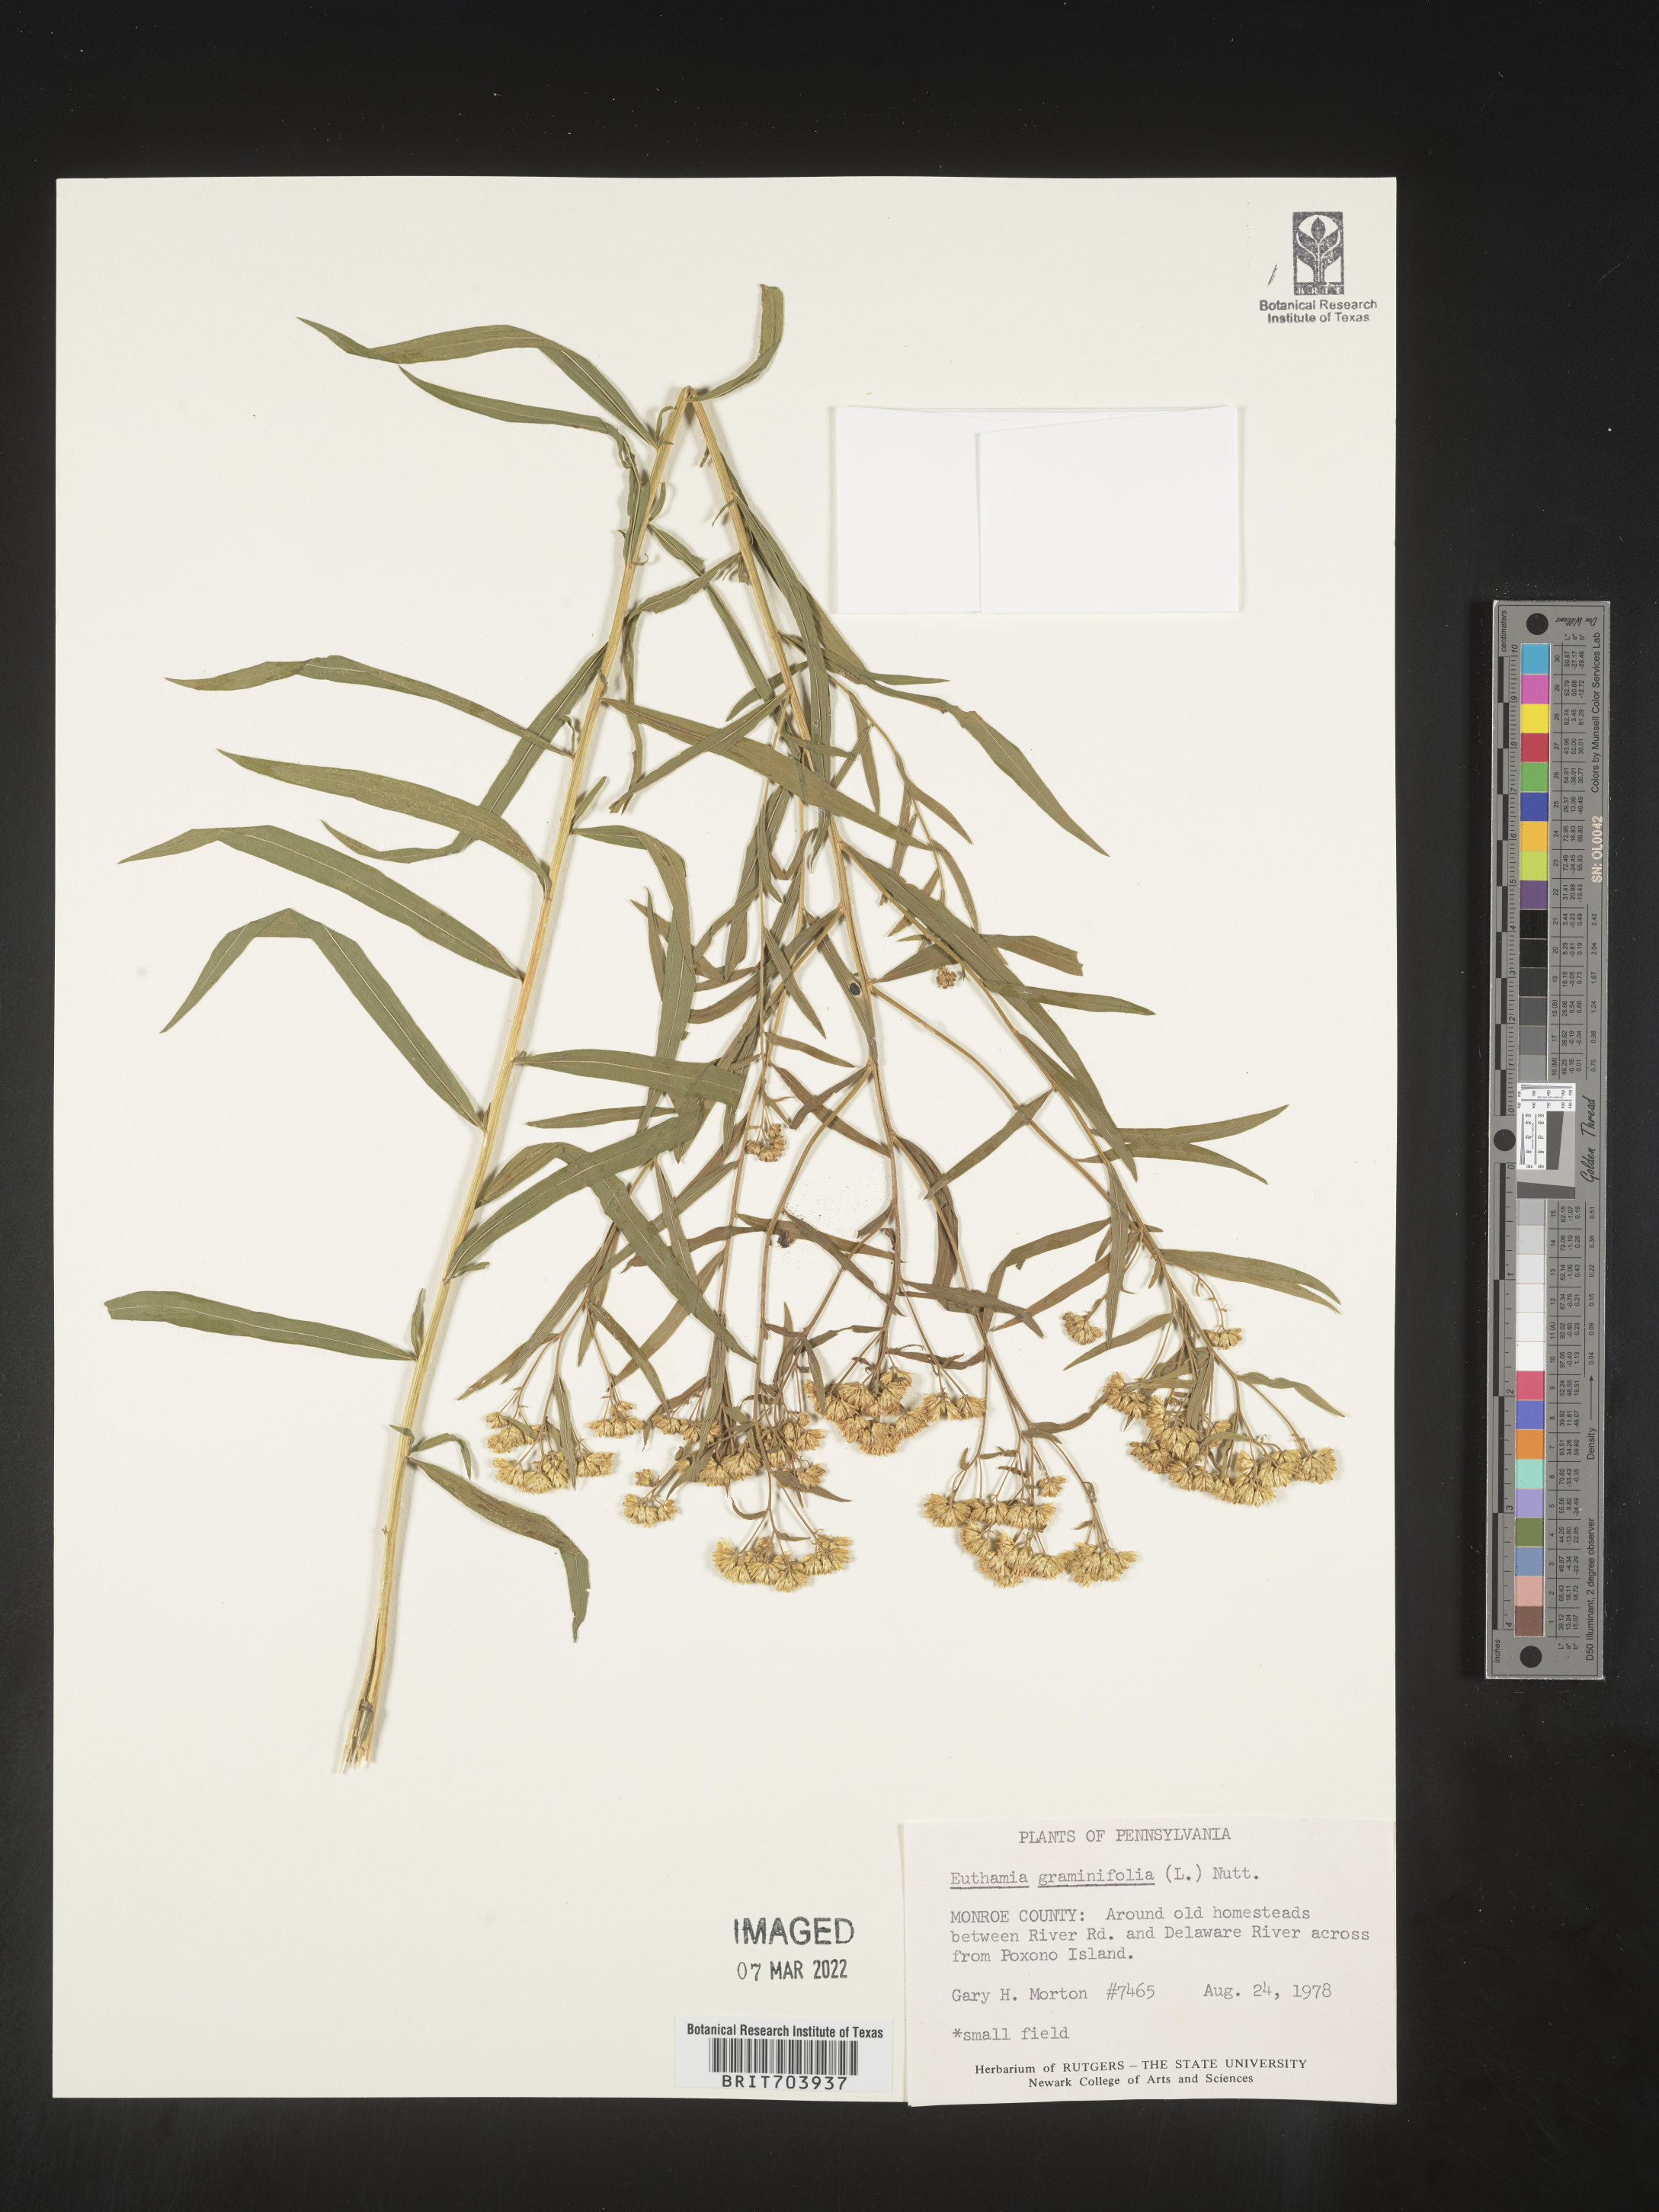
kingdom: Plantae
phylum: Tracheophyta
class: Magnoliopsida
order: Asterales
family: Asteraceae
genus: Euthamia
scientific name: Euthamia graminifolia
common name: Common goldentop
